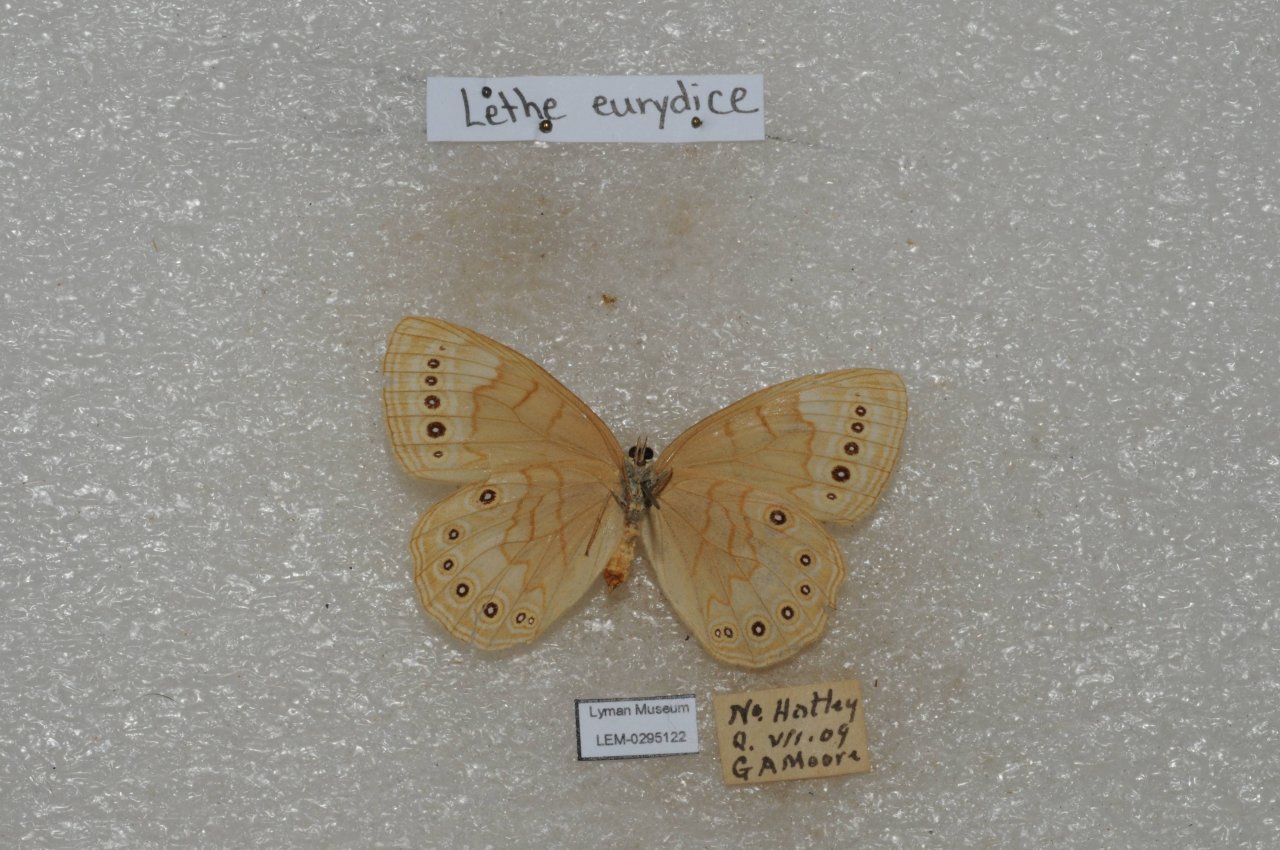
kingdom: Animalia
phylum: Arthropoda
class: Insecta
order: Lepidoptera
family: Nymphalidae
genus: Lethe
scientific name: Lethe eurydice
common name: Eyed Brown
